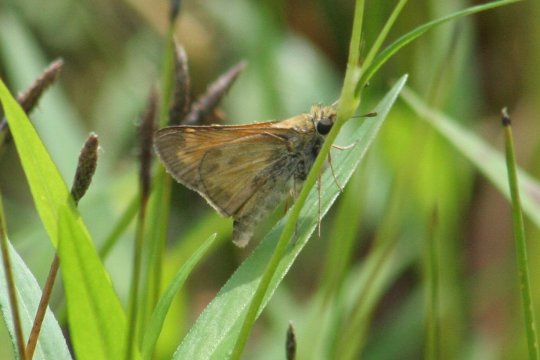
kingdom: Animalia
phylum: Arthropoda
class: Insecta
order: Lepidoptera
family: Hesperiidae
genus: Atalopedes
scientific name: Atalopedes campestris
